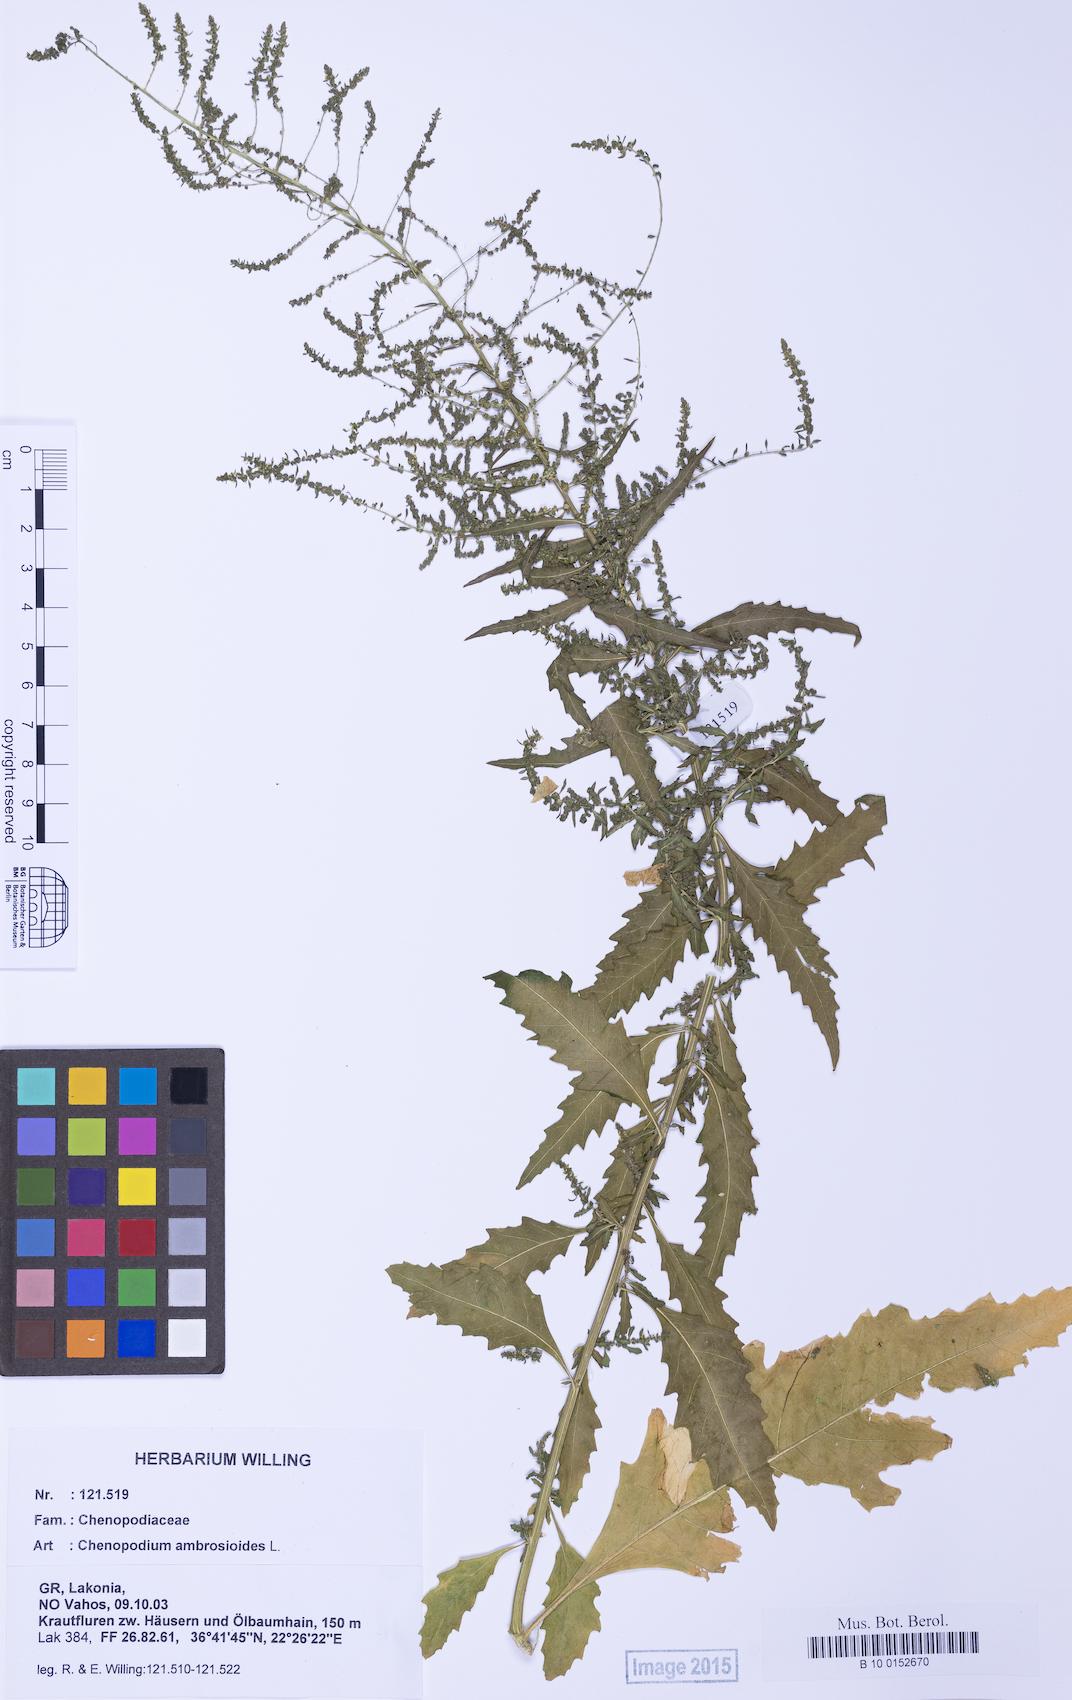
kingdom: Plantae
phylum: Tracheophyta
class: Magnoliopsida
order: Caryophyllales
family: Amaranthaceae
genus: Dysphania
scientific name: Dysphania ambrosioides
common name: Wormseed
